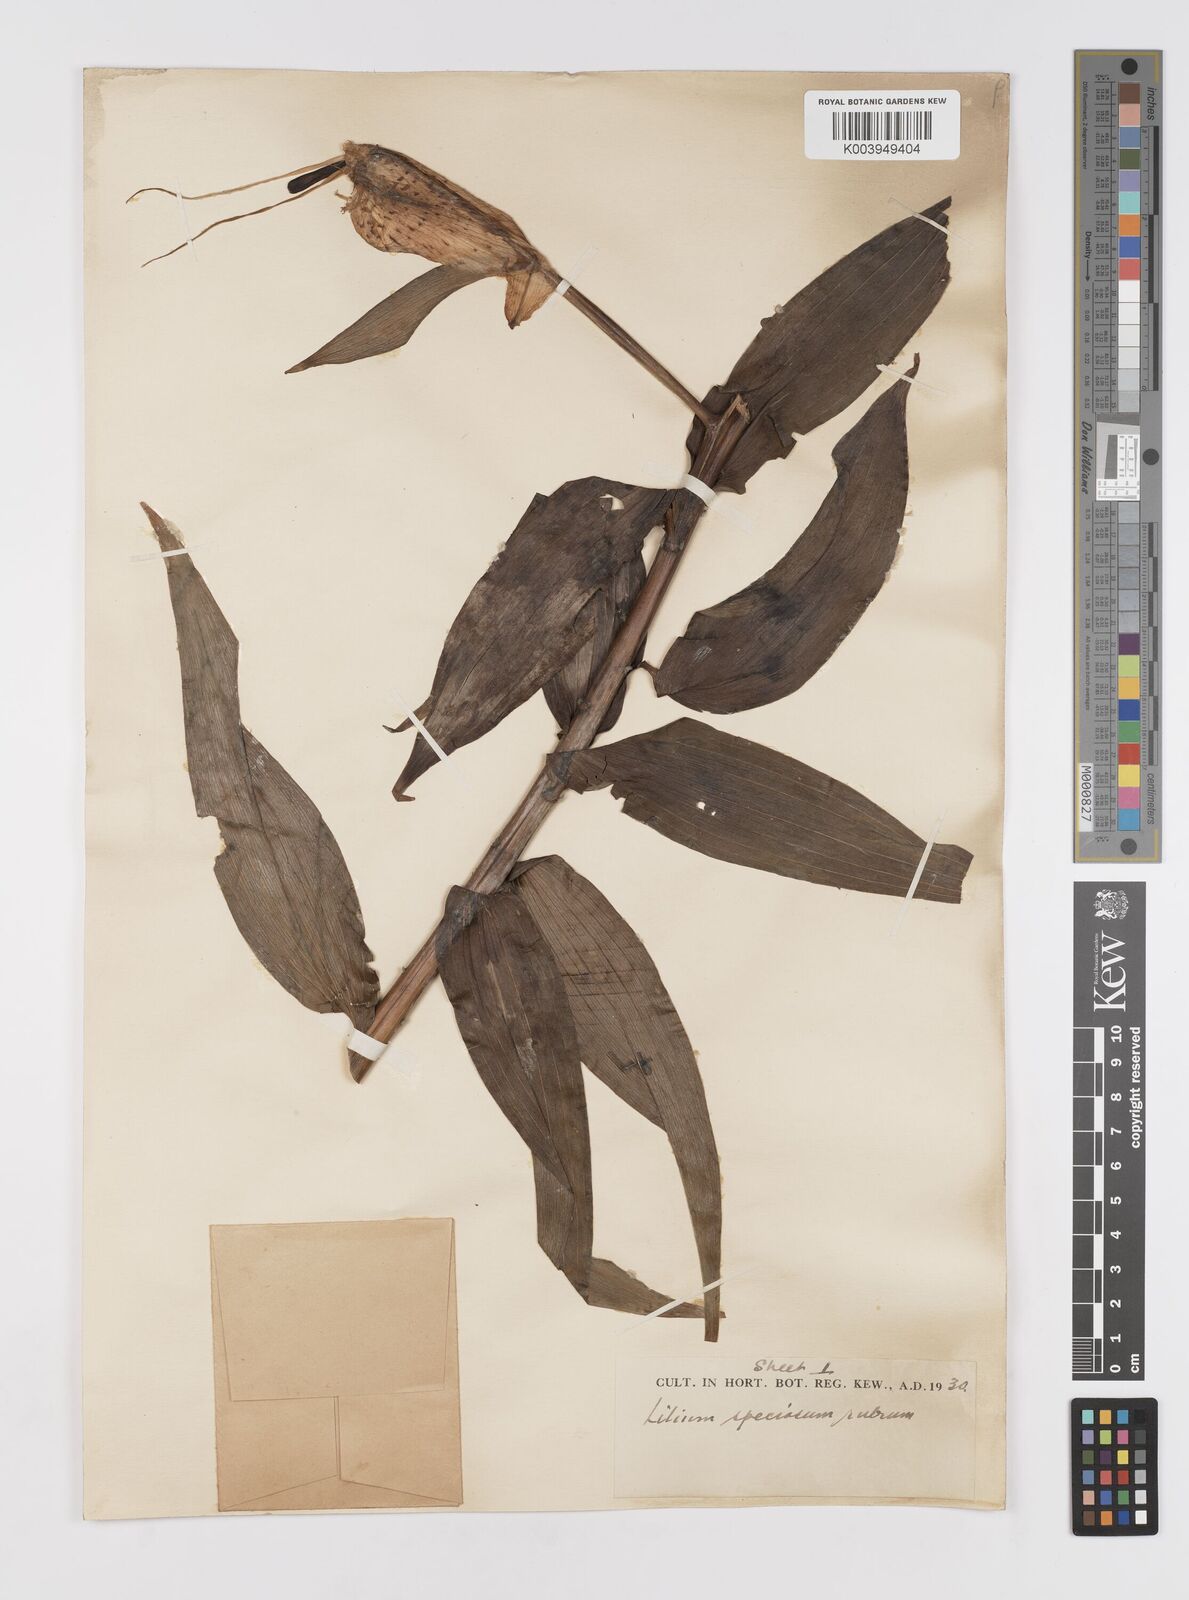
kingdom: Plantae
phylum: Tracheophyta
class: Liliopsida
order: Liliales
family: Liliaceae
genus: Lilium
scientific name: Lilium speciosum
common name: Japanese lily
